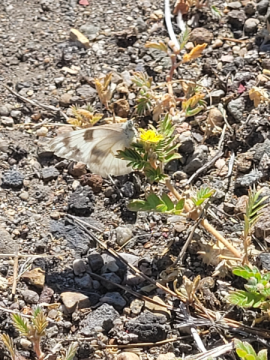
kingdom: Animalia
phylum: Arthropoda
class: Insecta
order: Lepidoptera
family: Pieridae
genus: Pontia
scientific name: Pontia occidentalis
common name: Western White
